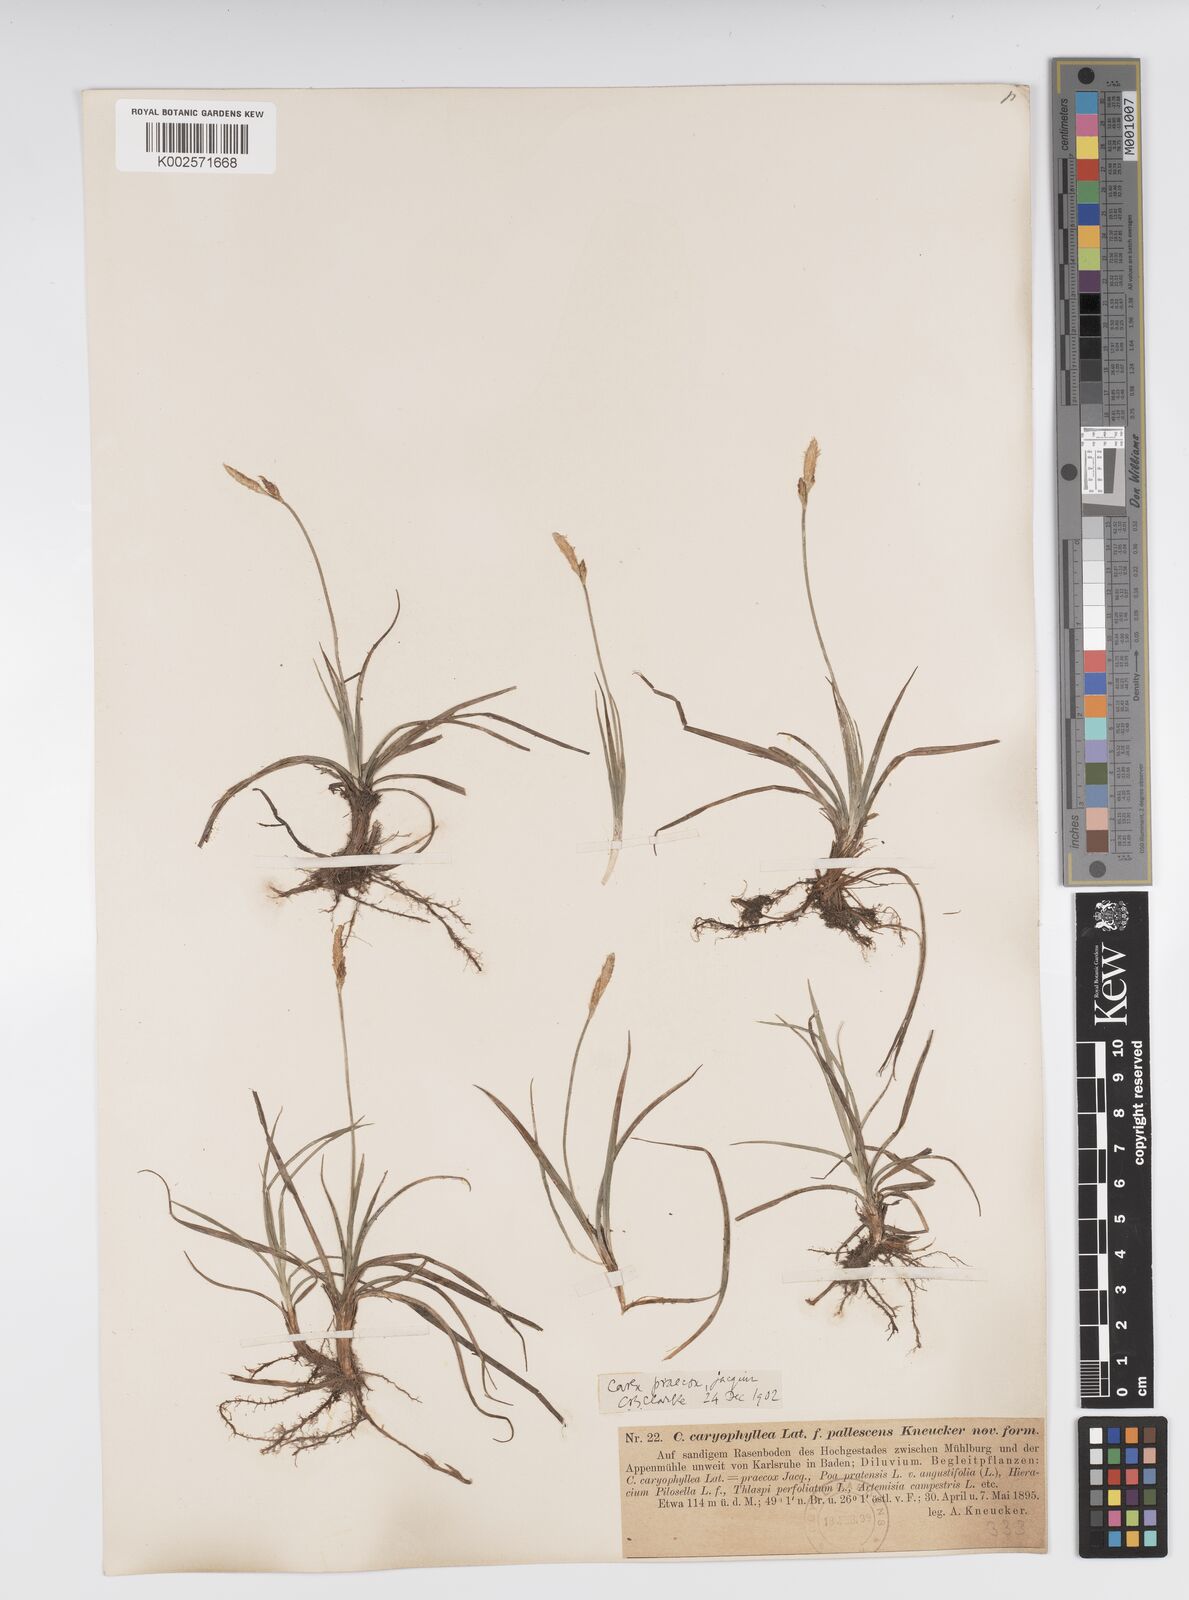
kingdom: Plantae
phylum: Tracheophyta
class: Liliopsida
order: Poales
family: Cyperaceae
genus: Carex
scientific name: Carex caryophyllea
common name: Spring sedge
